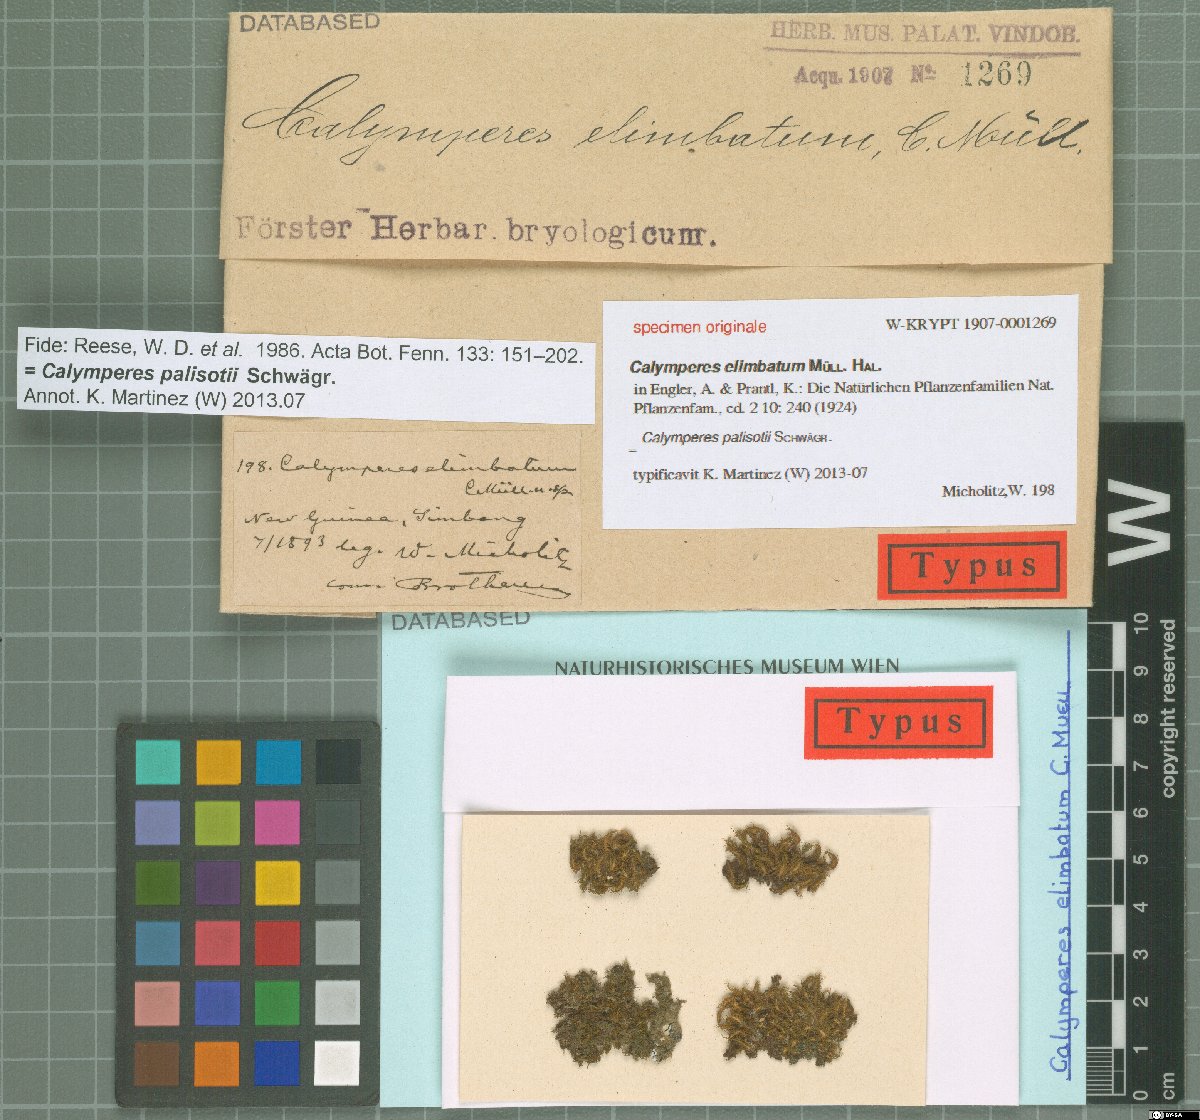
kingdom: Plantae
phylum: Bryophyta
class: Bryopsida
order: Dicranales
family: Calymperaceae
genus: Calymperes
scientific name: Calymperes
